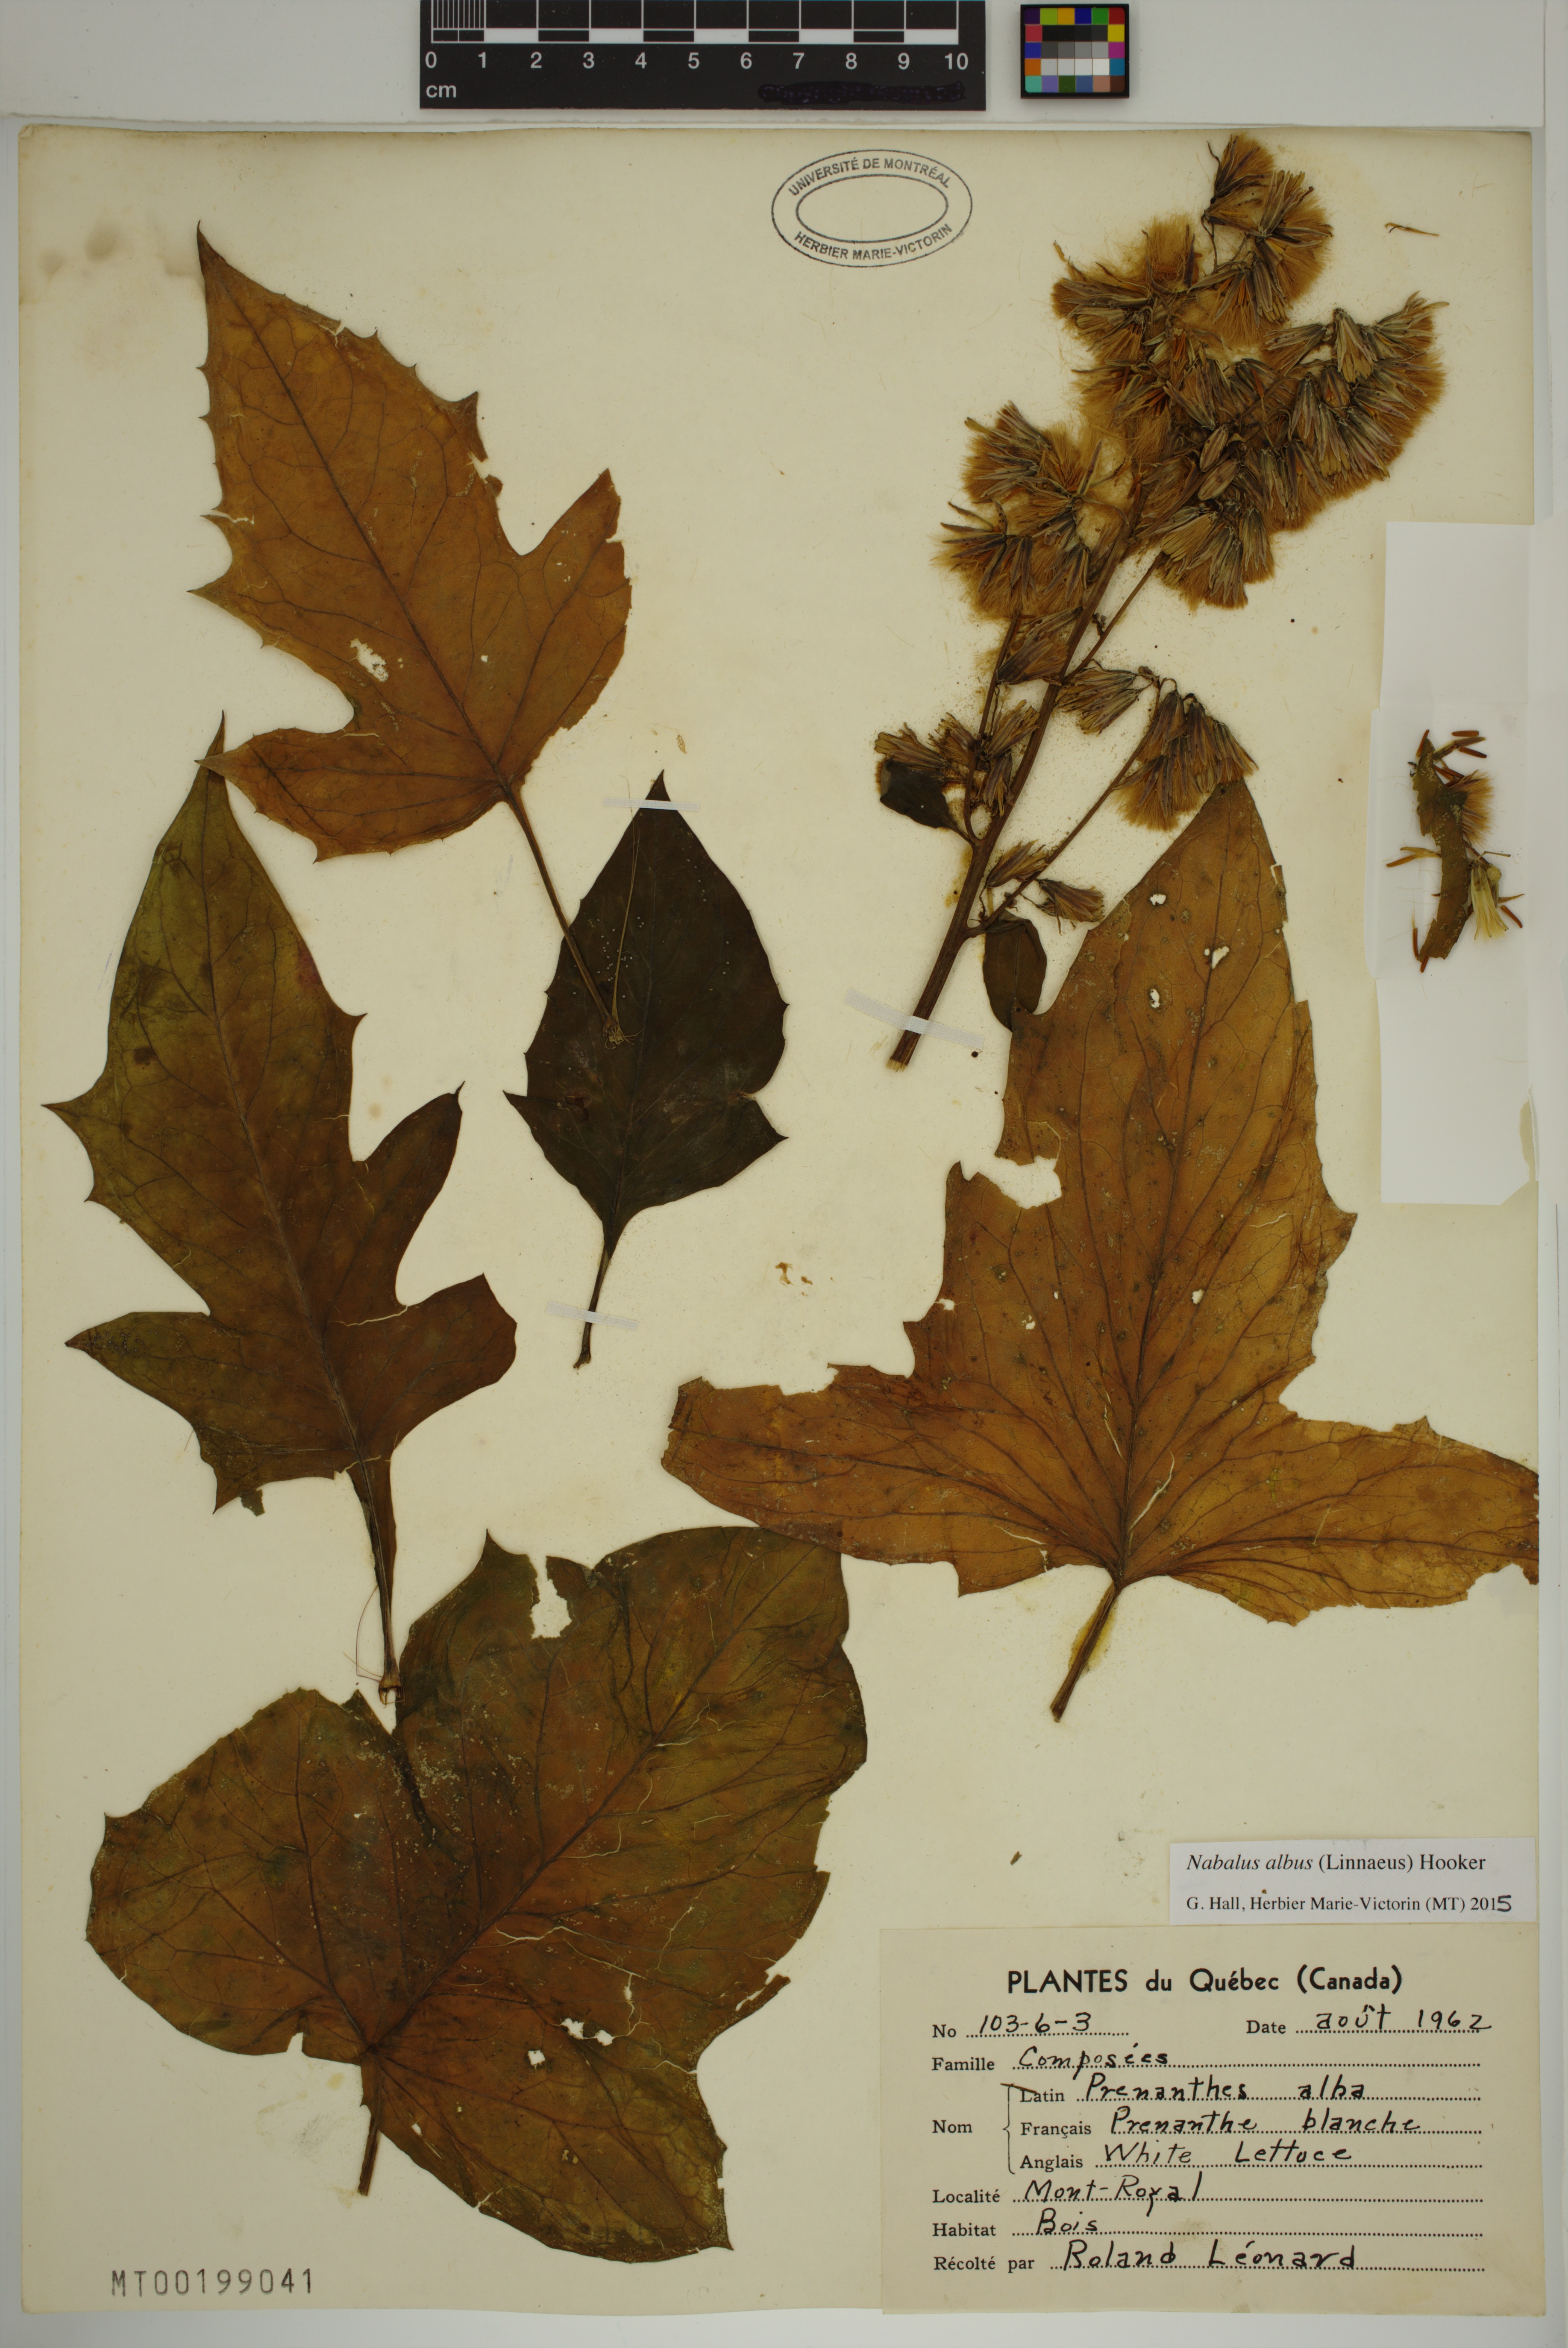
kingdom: Plantae
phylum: Tracheophyta
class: Magnoliopsida
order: Asterales
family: Asteraceae
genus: Nabalus
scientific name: Nabalus albus
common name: White rattlesnakeroot
